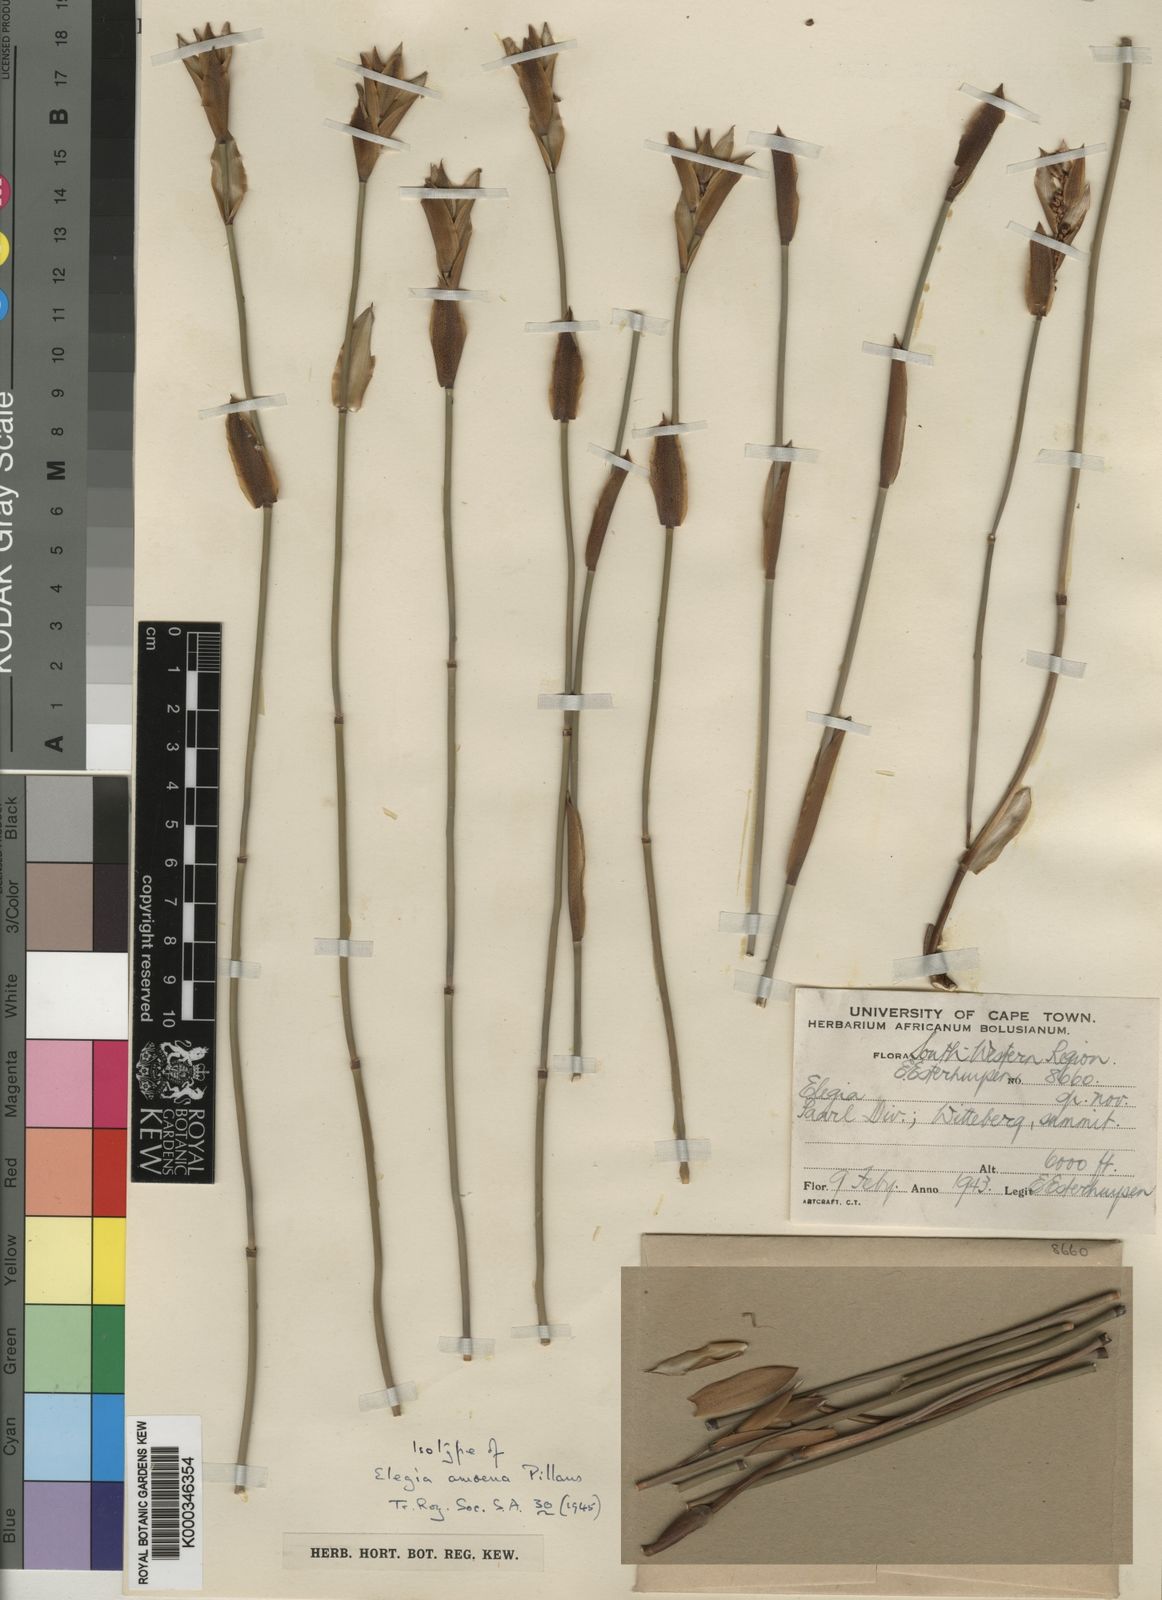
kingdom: Plantae
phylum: Tracheophyta
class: Liliopsida
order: Poales
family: Restionaceae
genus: Elegia
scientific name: Elegia racemosa
